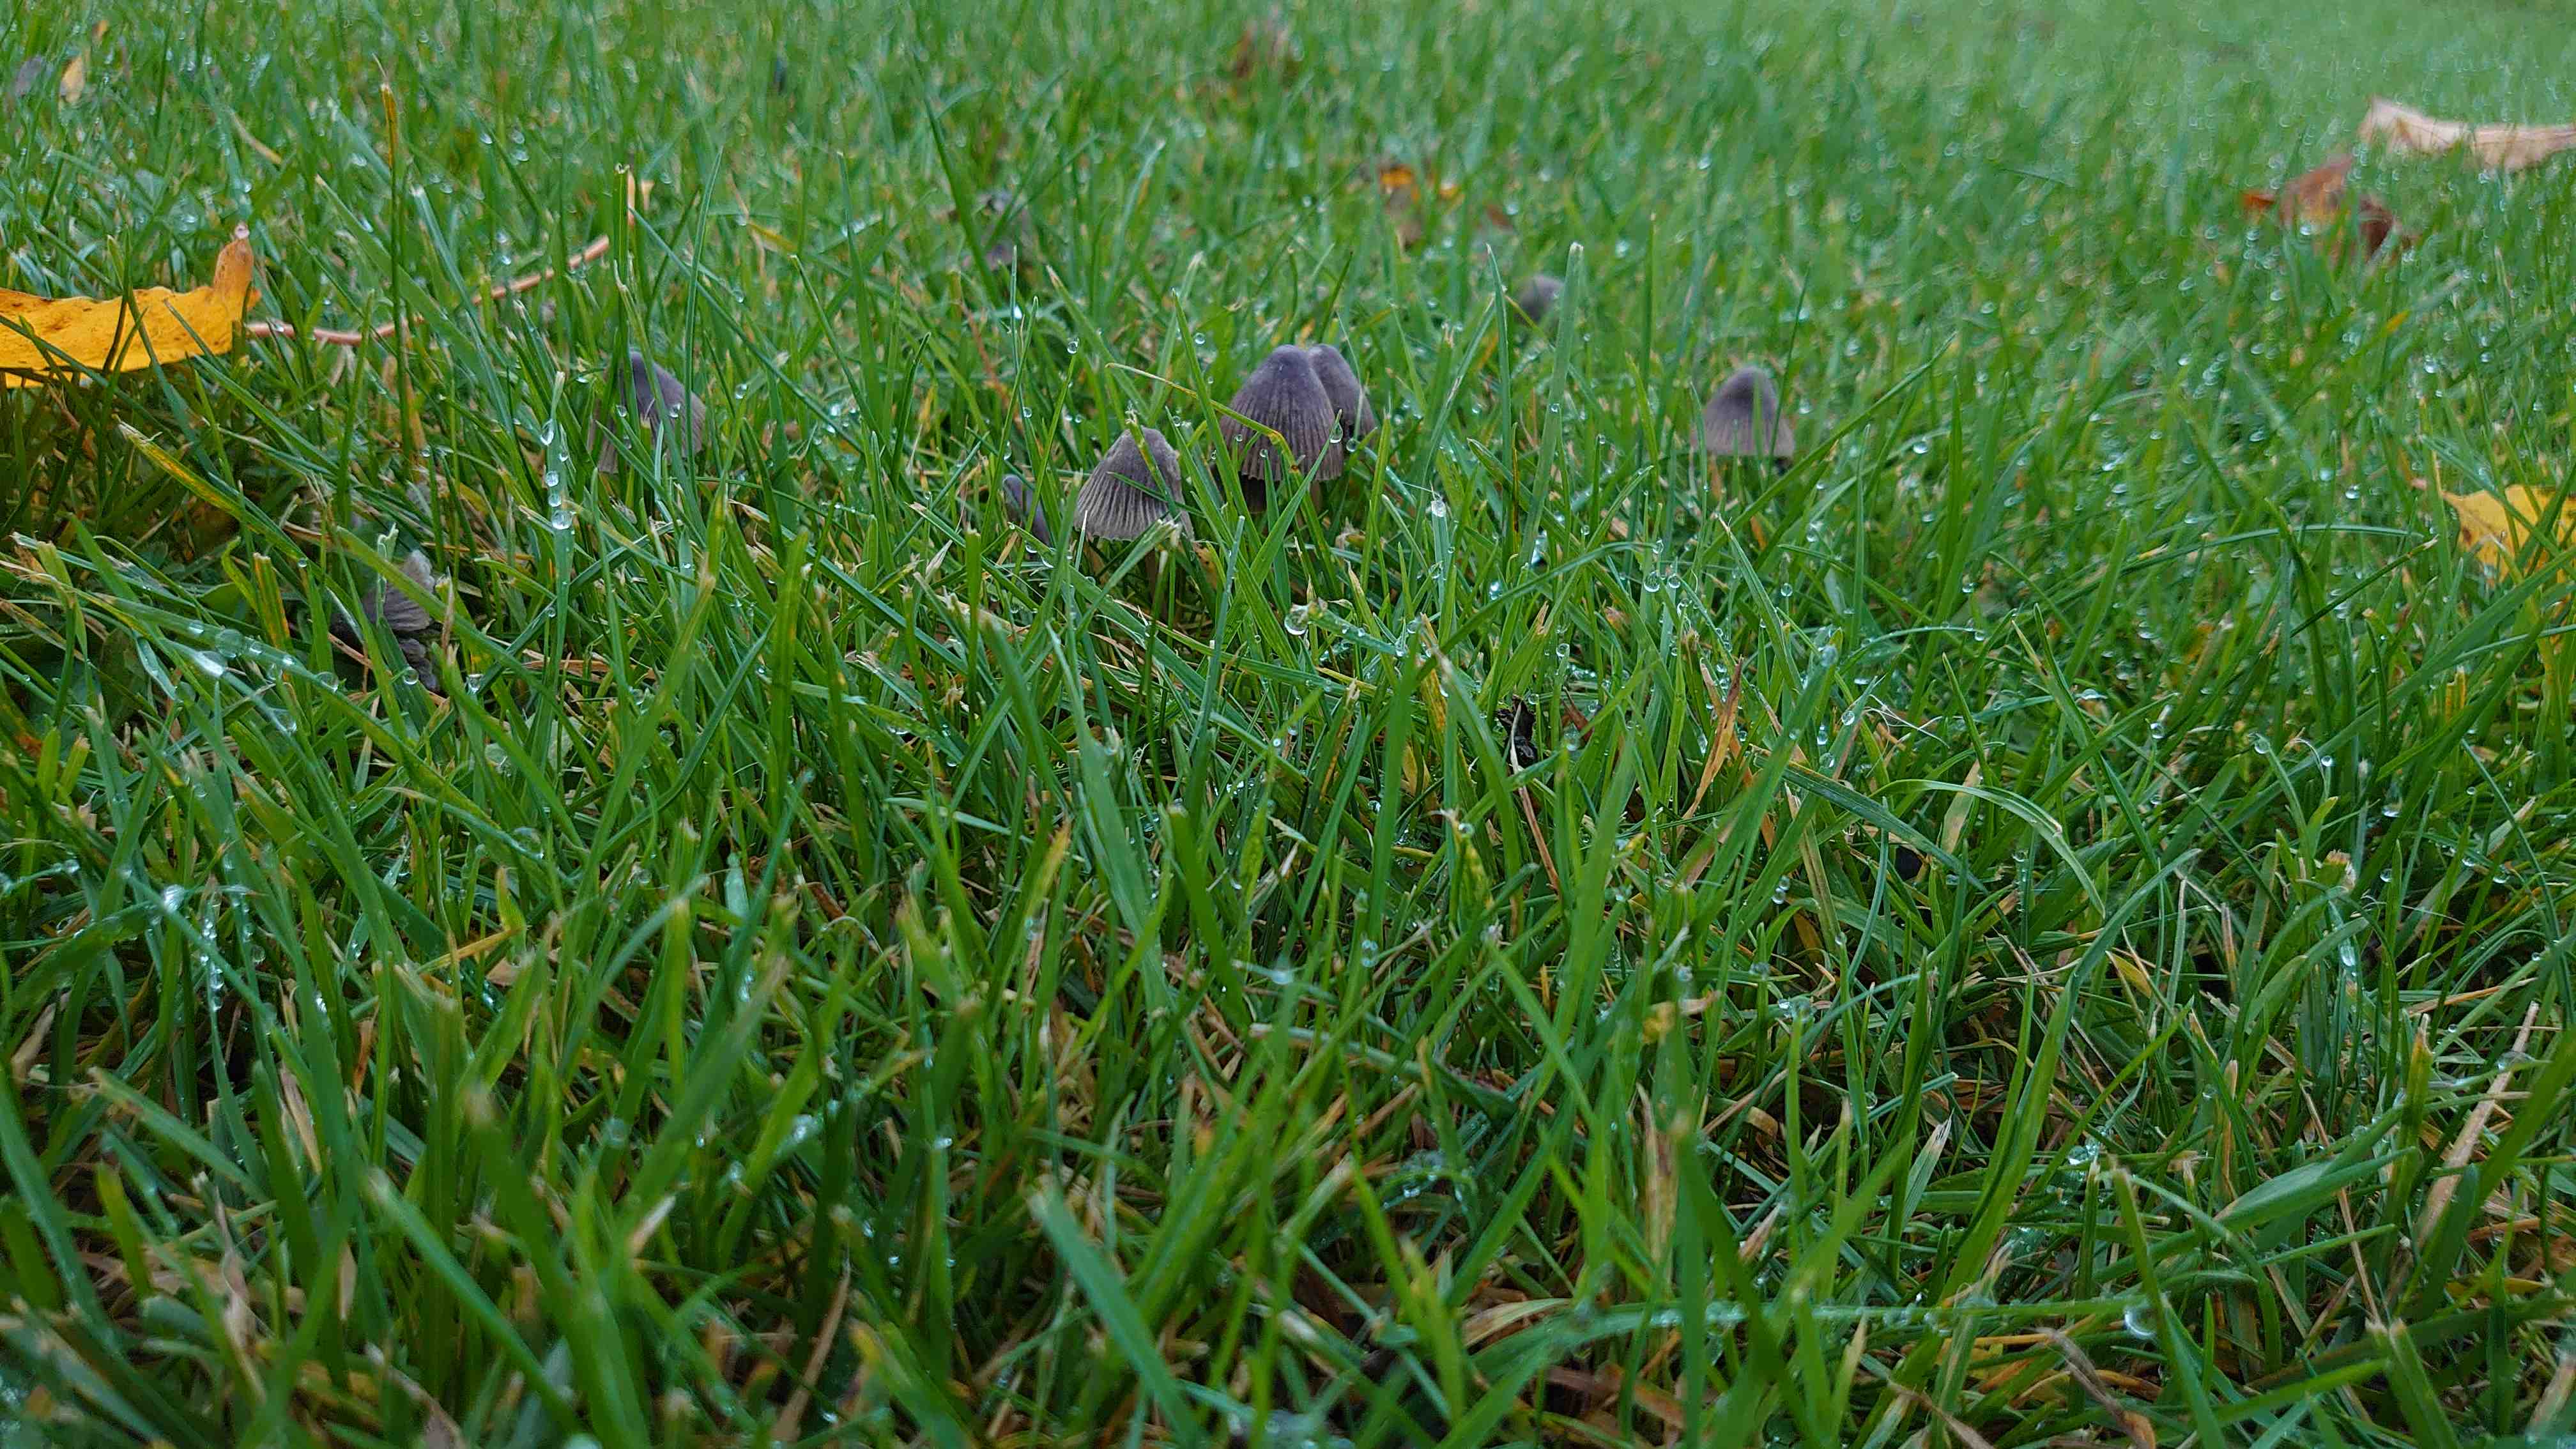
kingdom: Fungi
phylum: Basidiomycota
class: Agaricomycetes
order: Agaricales
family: Mycenaceae
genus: Mycena
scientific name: Mycena
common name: huesvamp
